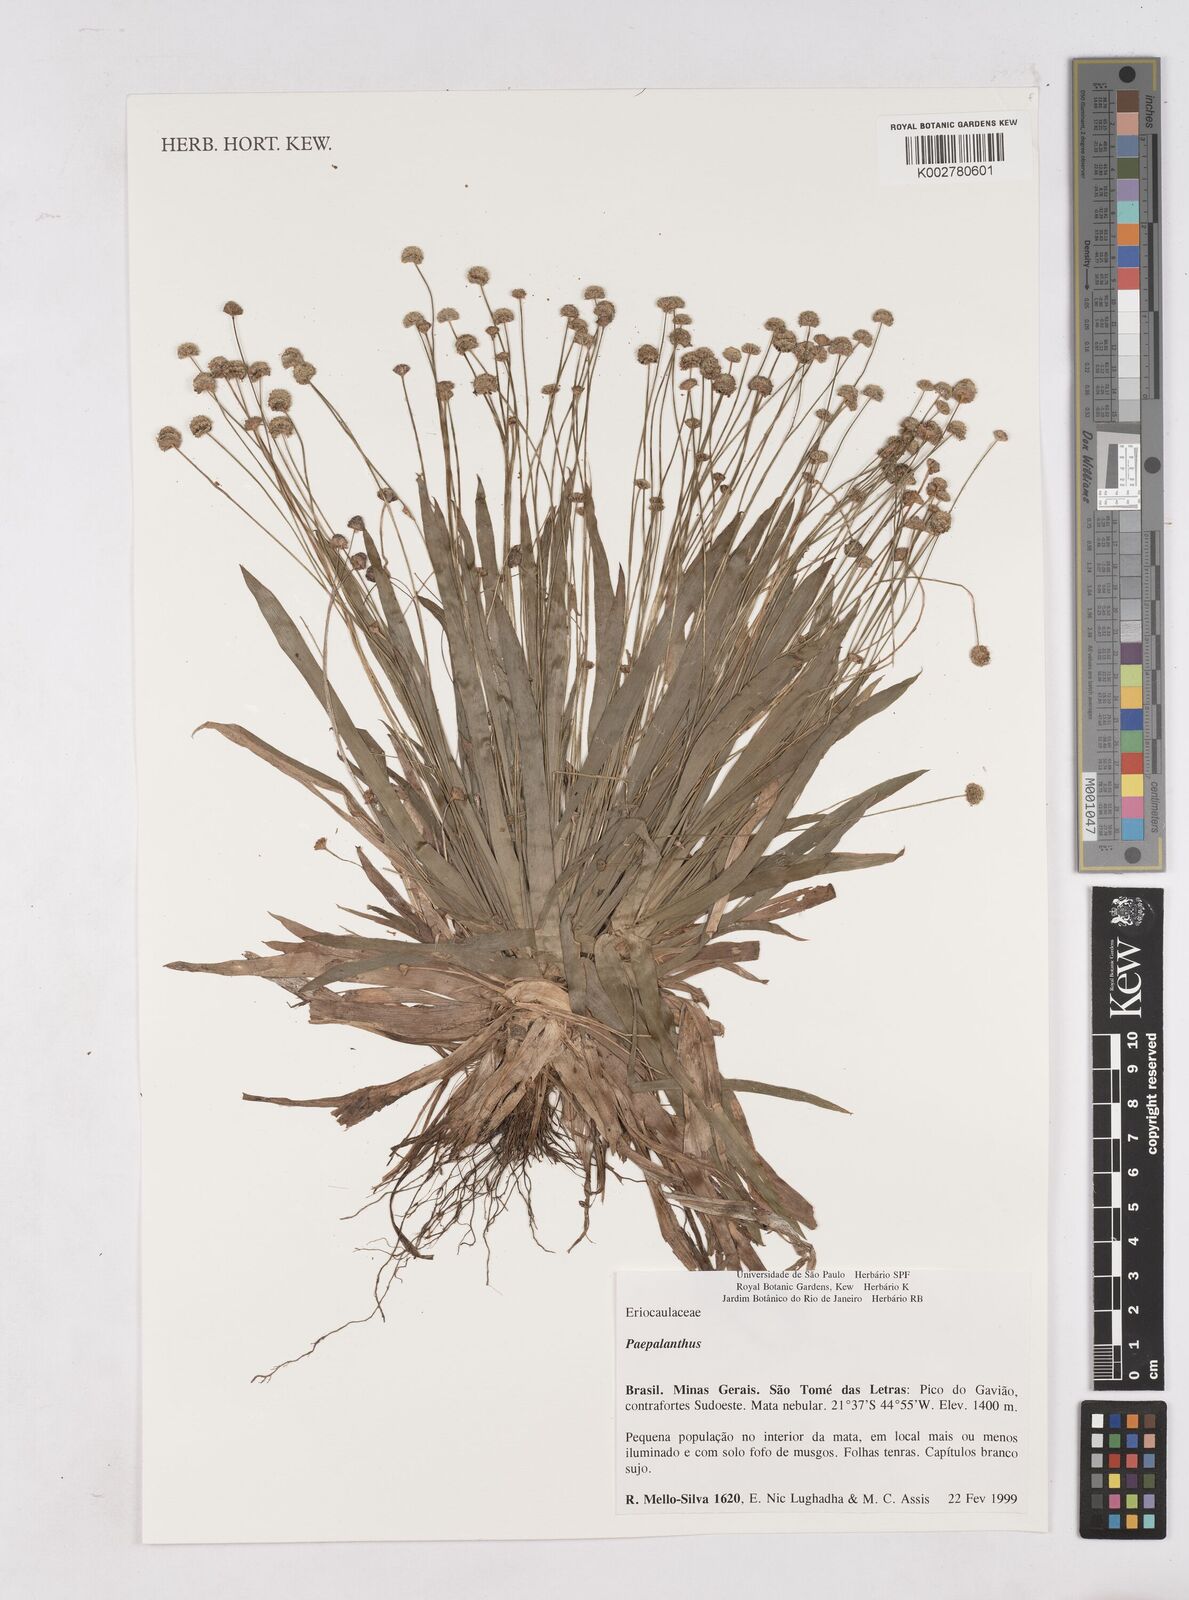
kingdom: Plantae
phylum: Tracheophyta
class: Liliopsida
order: Poales
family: Eriocaulaceae
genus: Paepalanthus
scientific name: Paepalanthus
